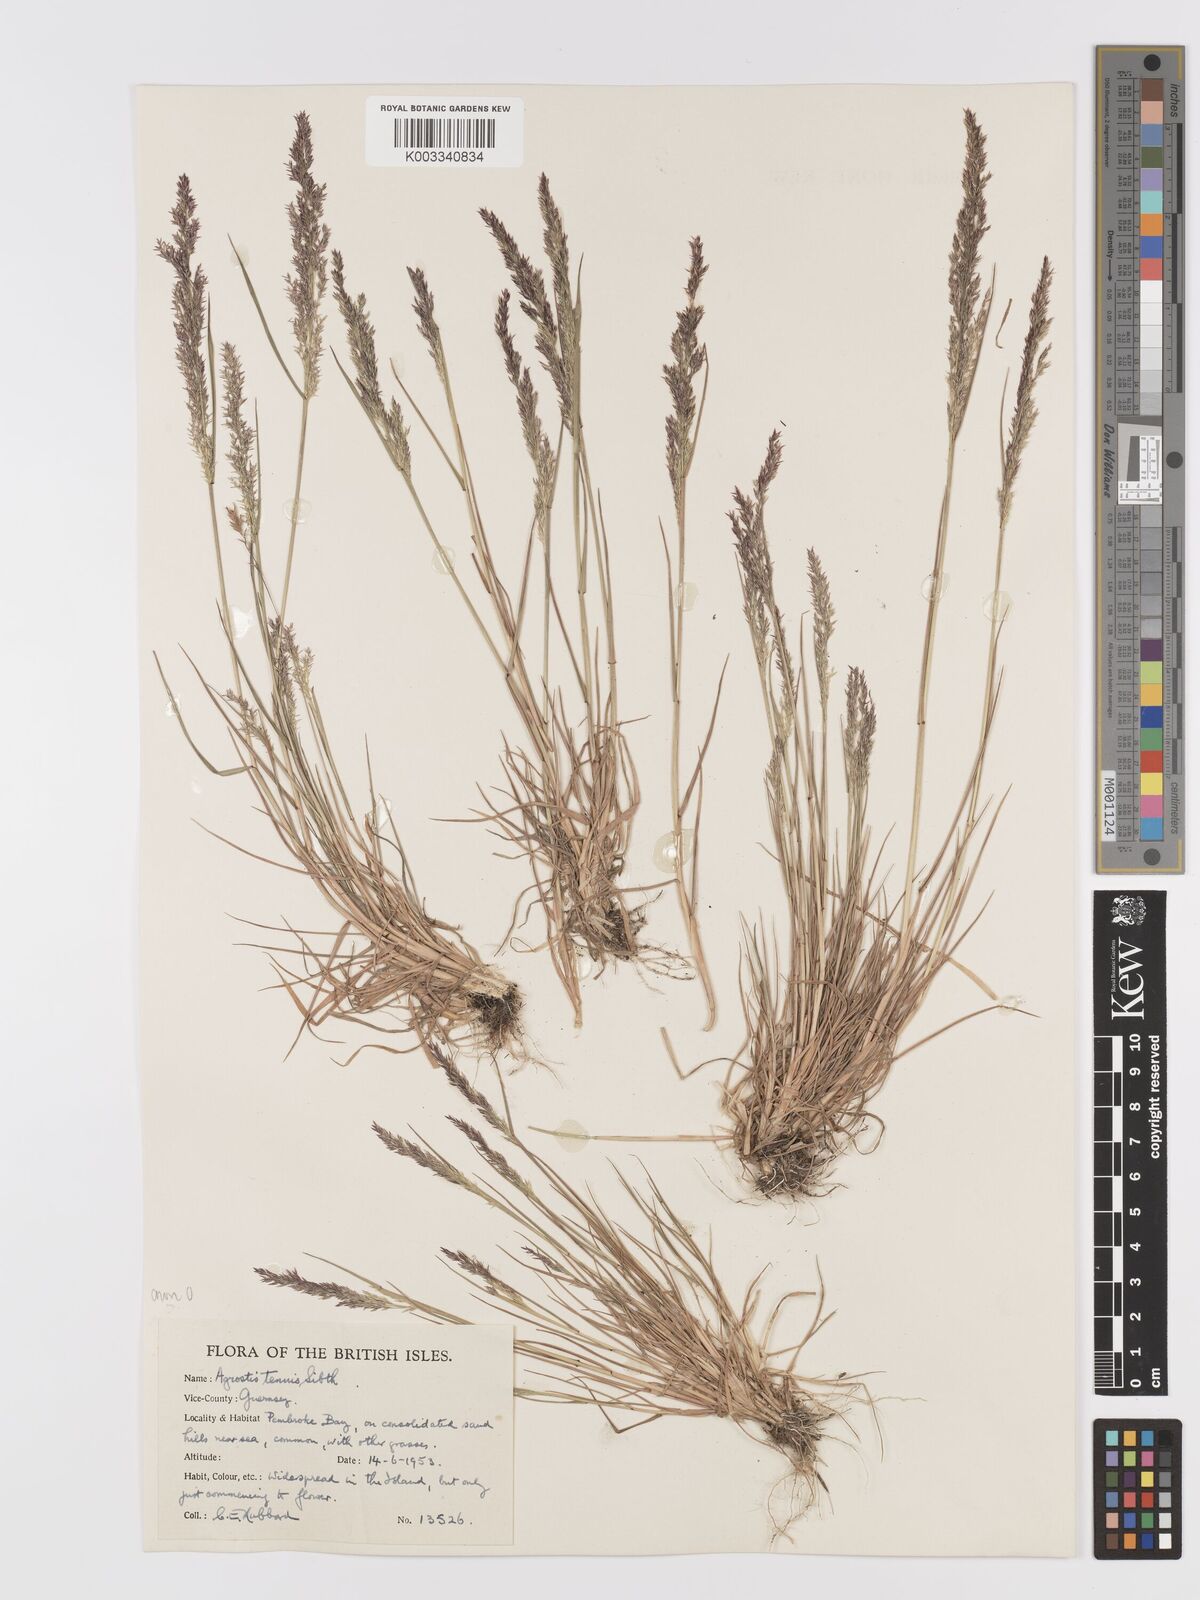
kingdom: Plantae
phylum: Tracheophyta
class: Liliopsida
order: Poales
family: Poaceae
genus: Agrostis
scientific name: Agrostis capillaris
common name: Colonial bentgrass
